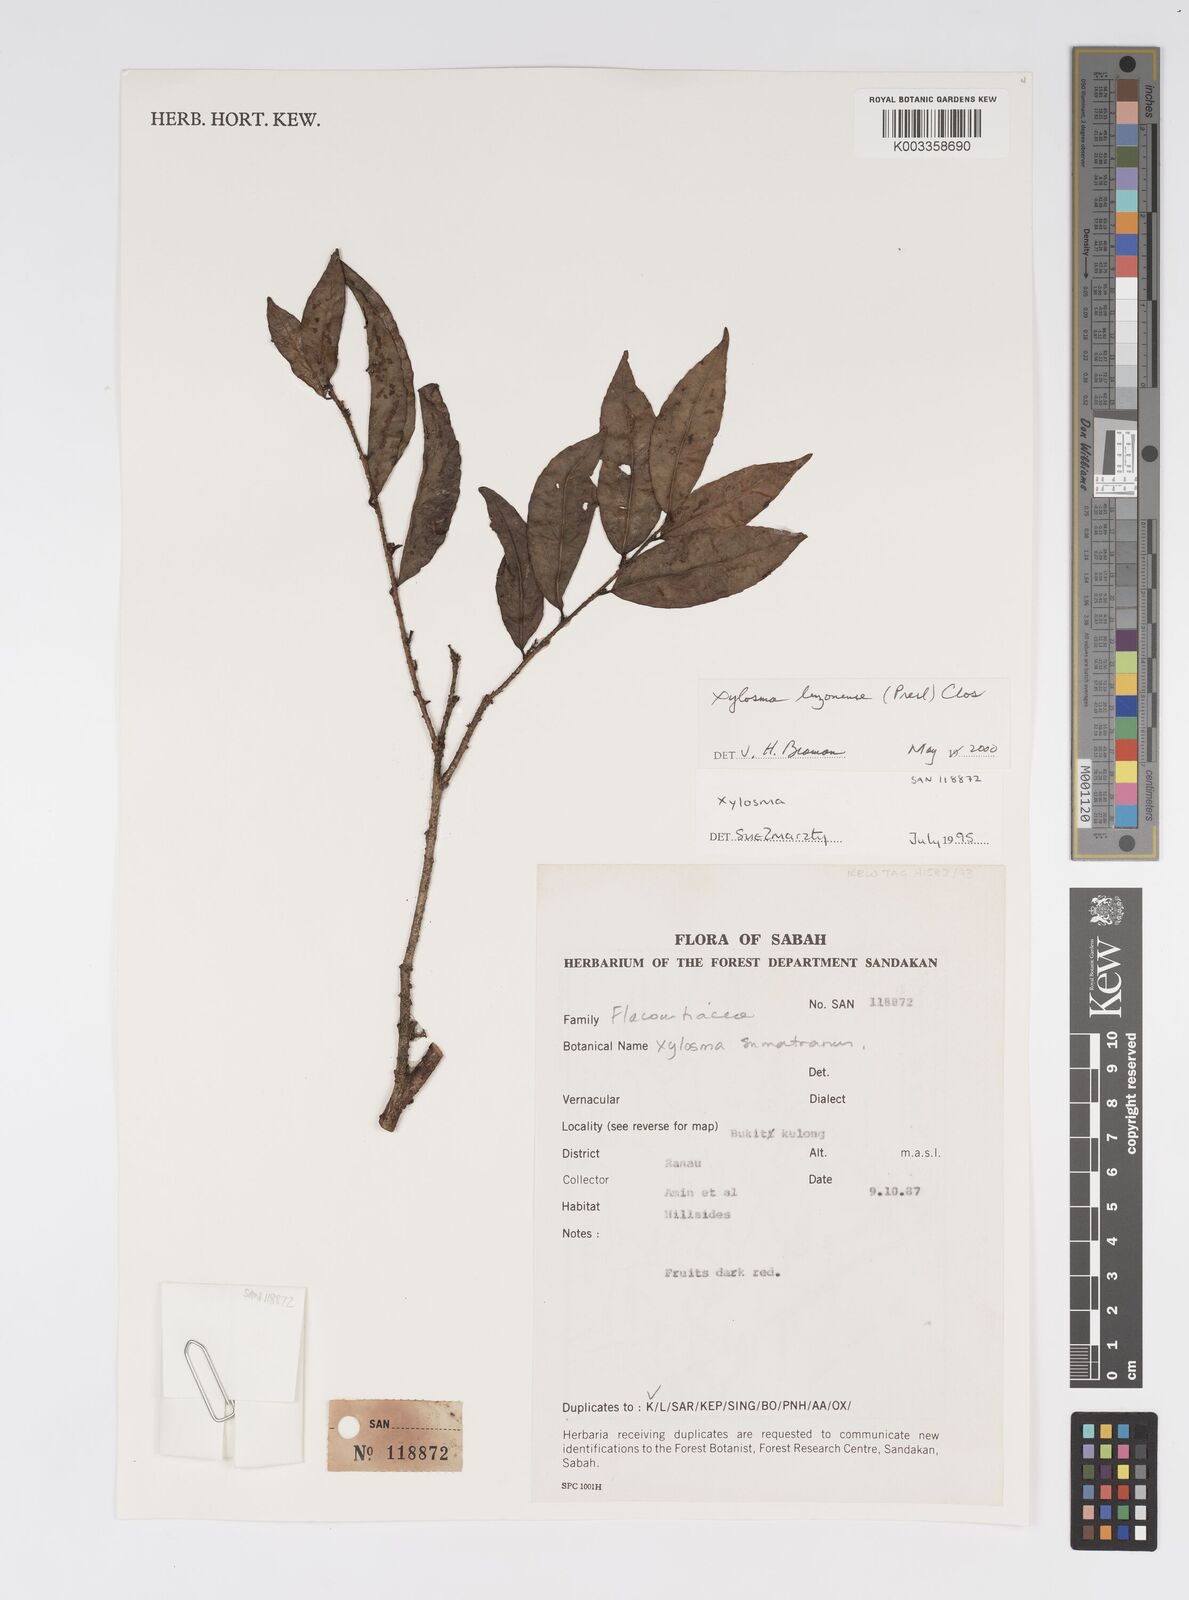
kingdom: Plantae
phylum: Tracheophyta
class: Magnoliopsida
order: Malpighiales
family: Salicaceae
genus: Xylosma
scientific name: Xylosma luzonensis
